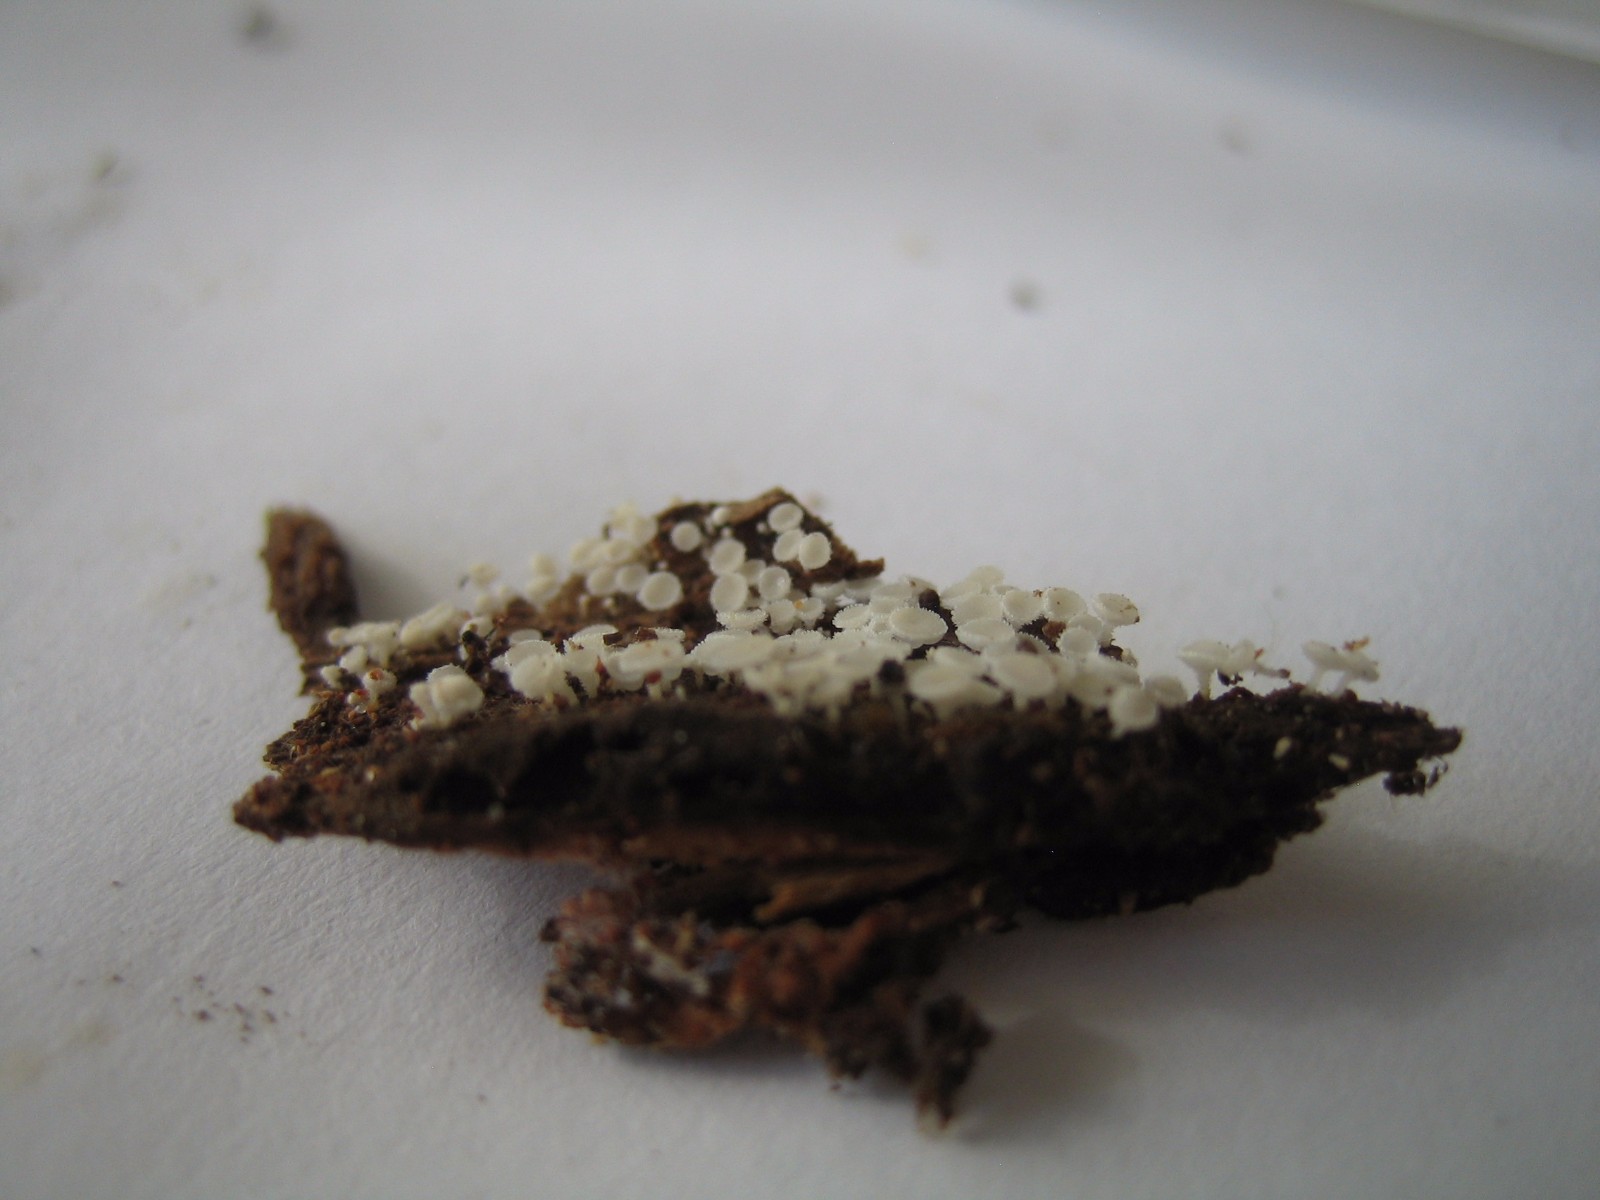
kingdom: Fungi
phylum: Ascomycota
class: Leotiomycetes
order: Helotiales
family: Lachnaceae
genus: Lachnum
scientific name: Lachnum
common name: frynseskive
